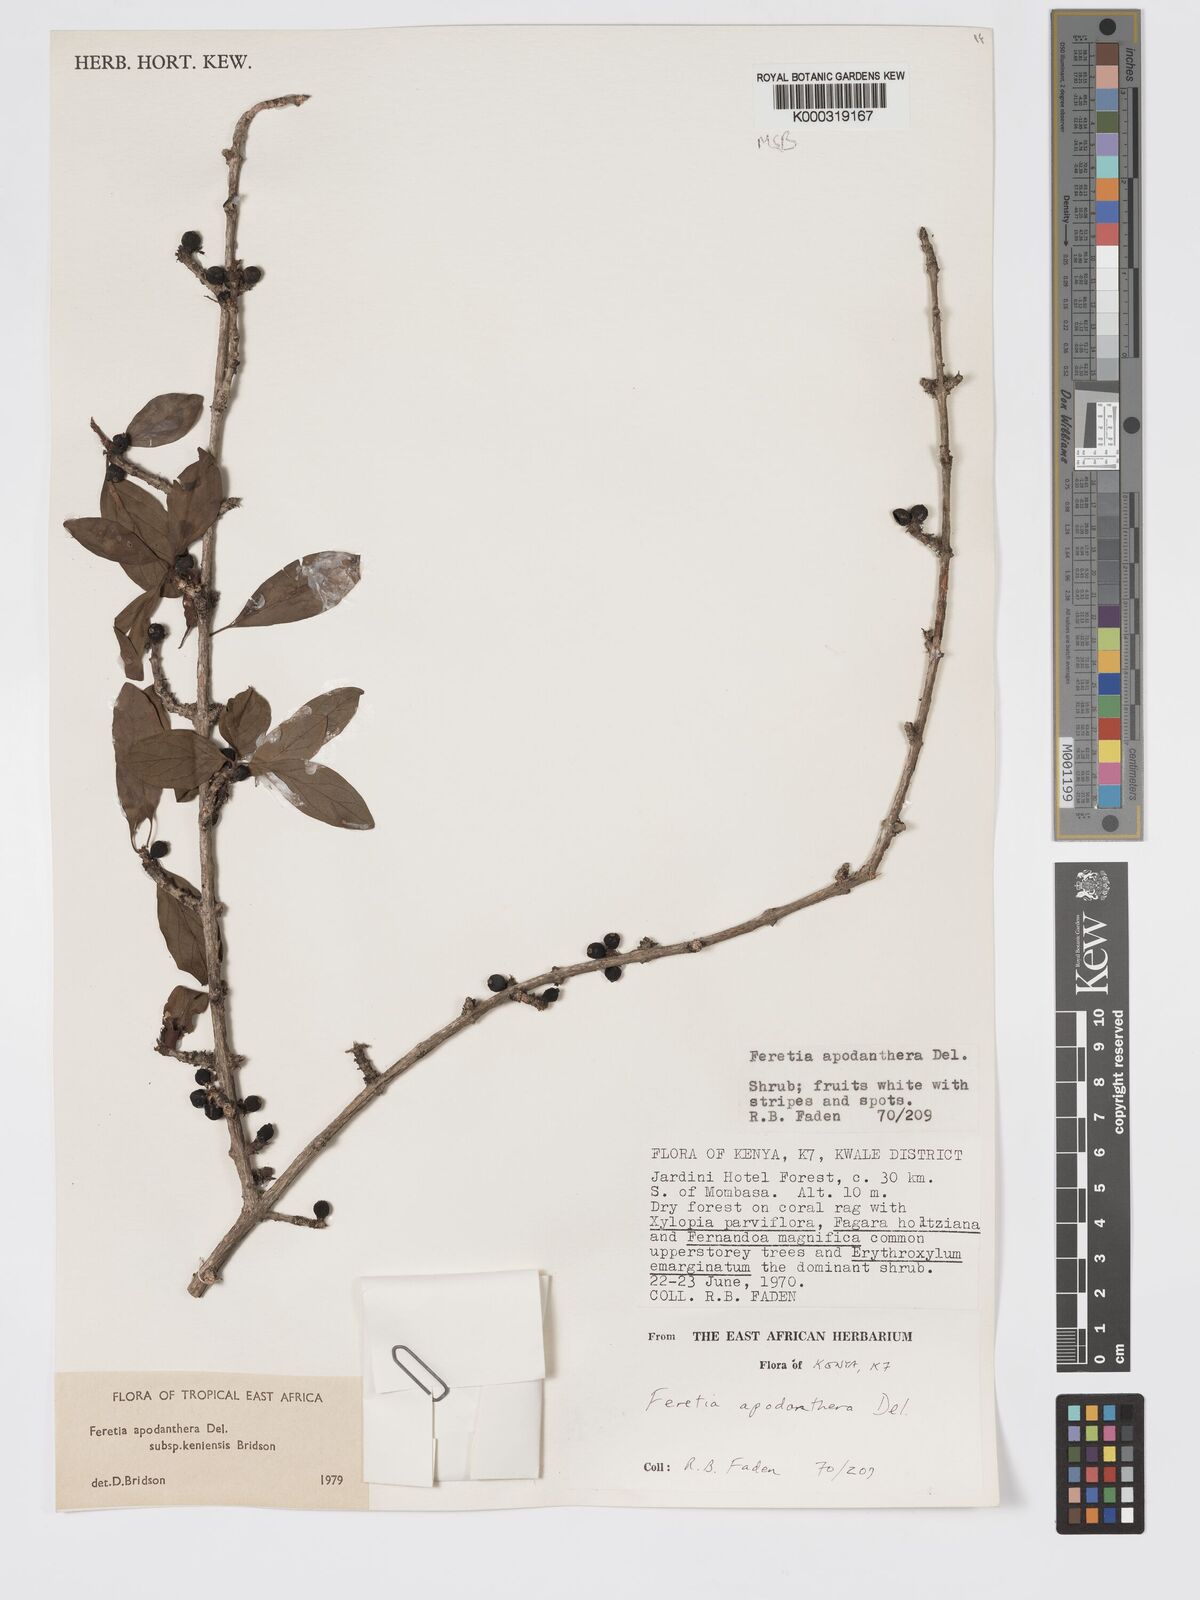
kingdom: Plantae
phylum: Tracheophyta
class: Magnoliopsida
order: Gentianales
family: Rubiaceae
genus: Feretia
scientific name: Feretia apodanthera
